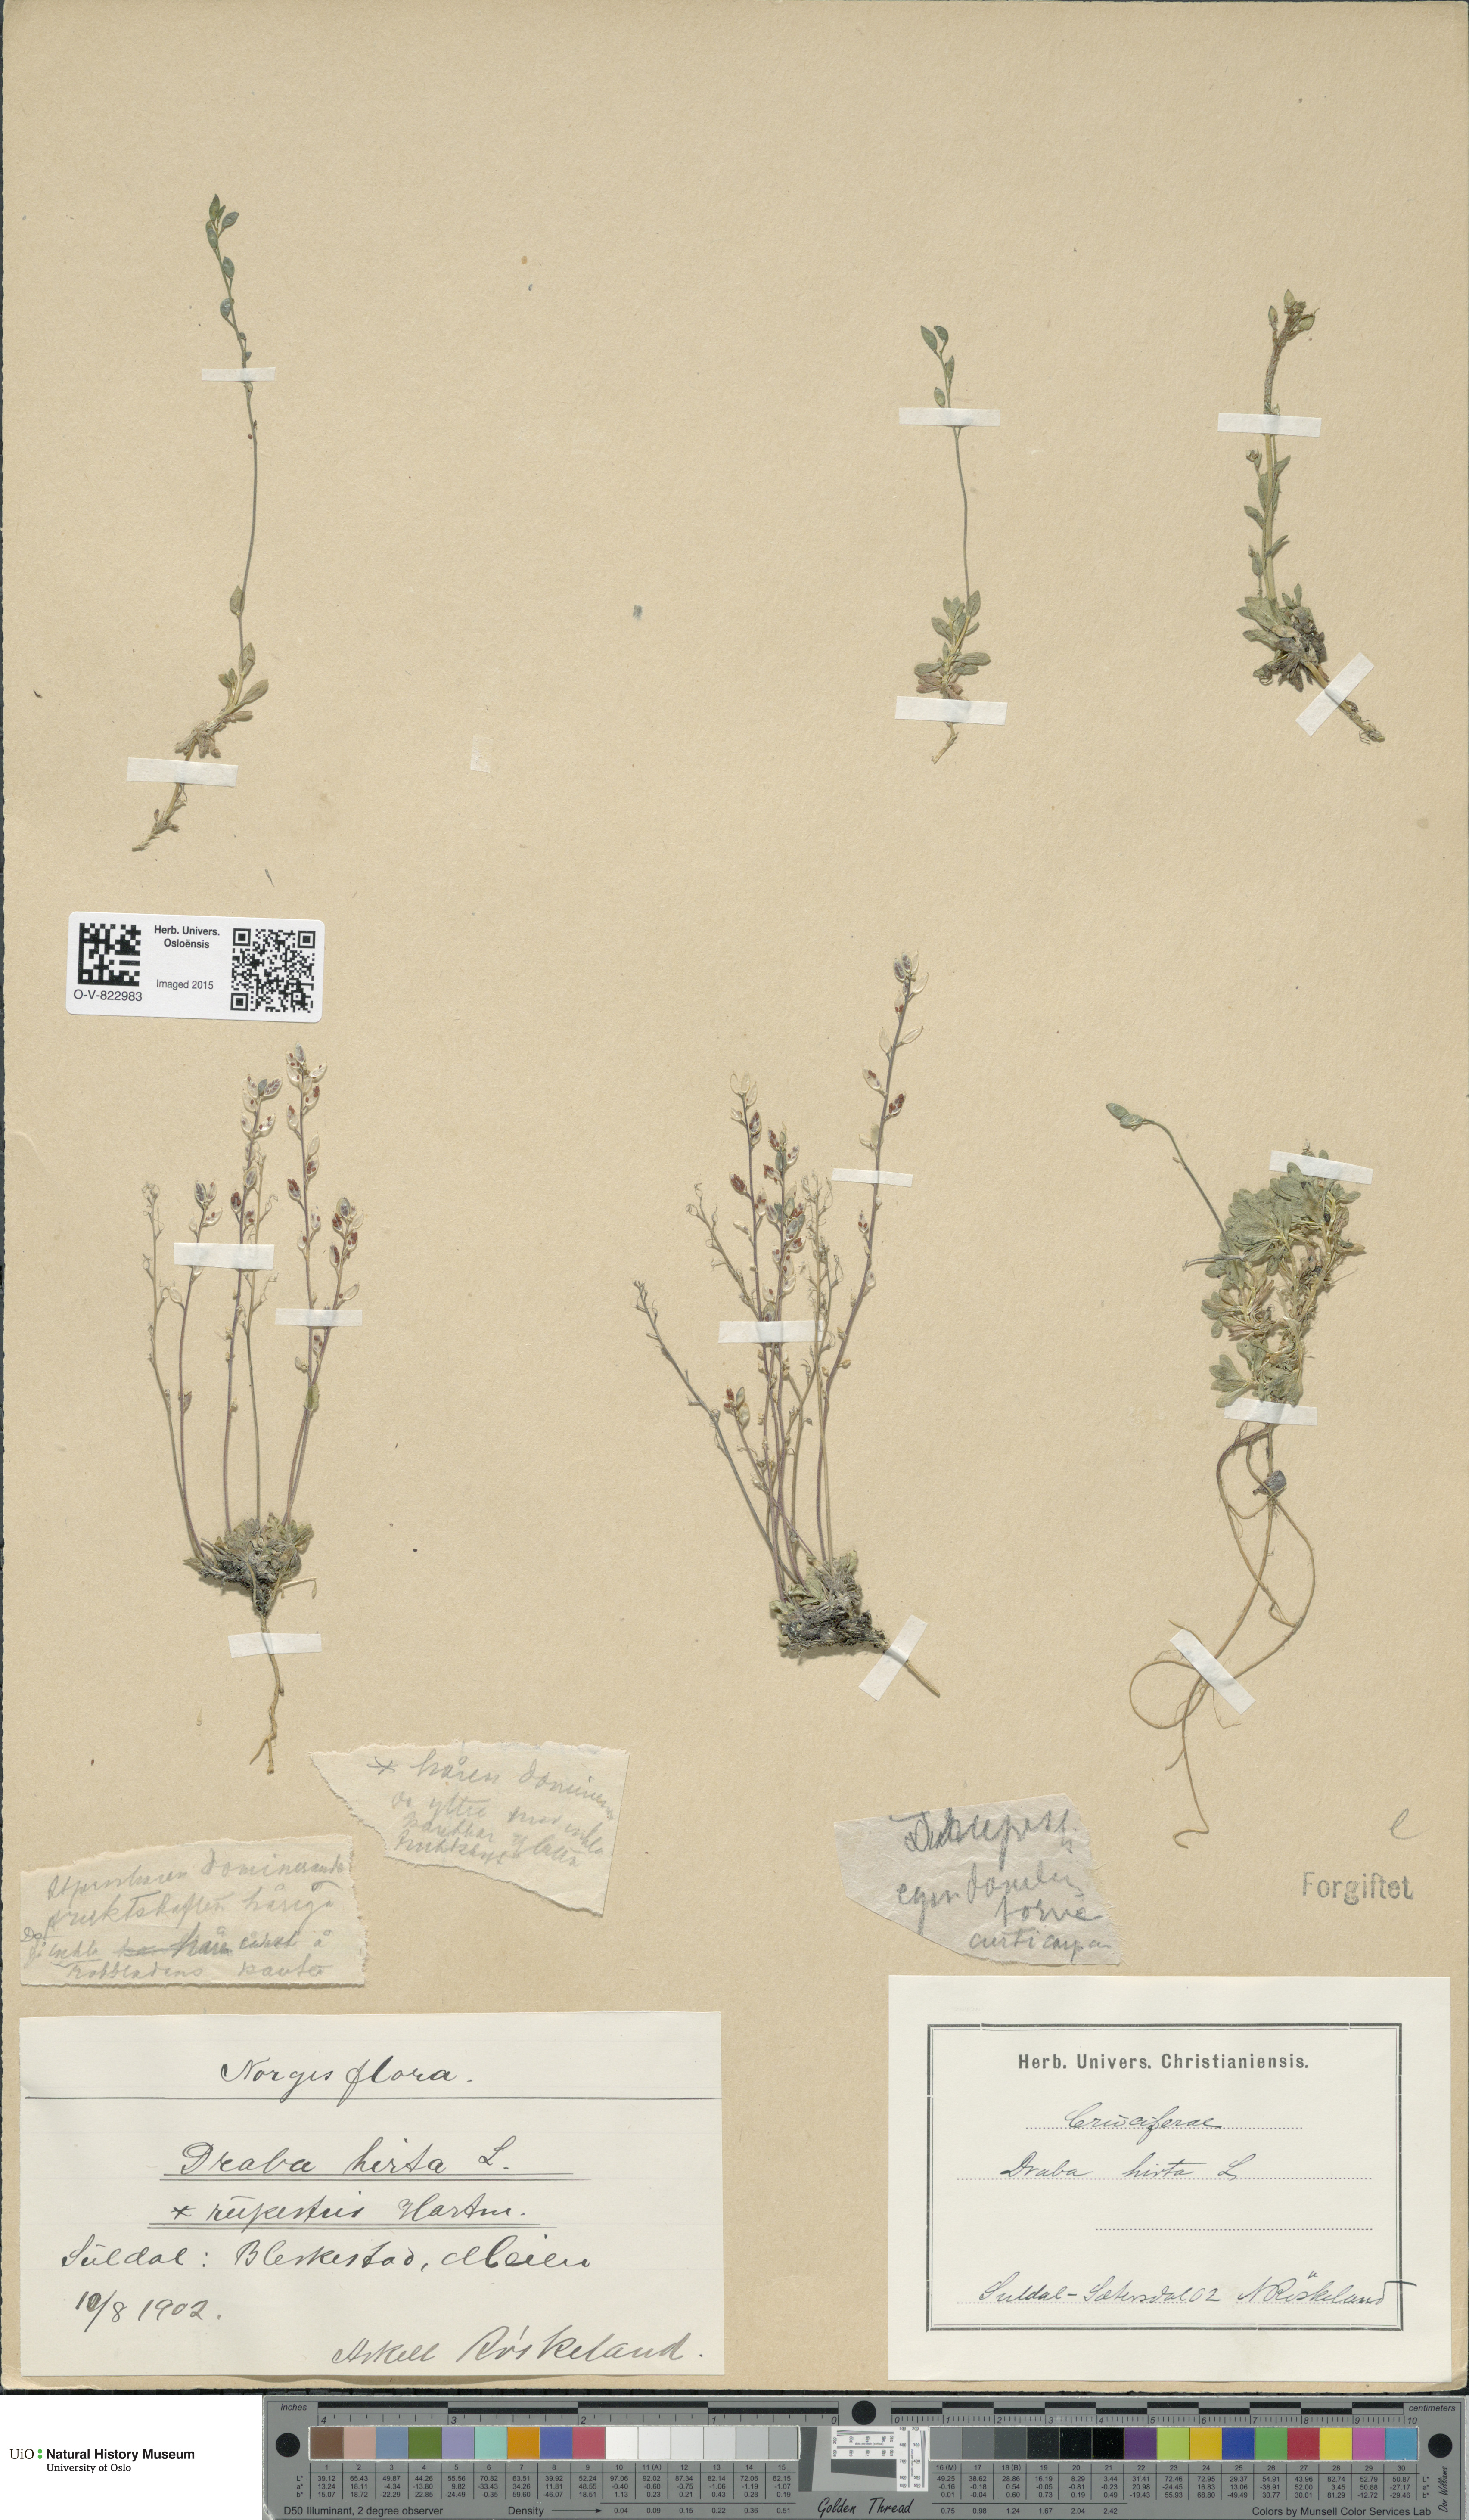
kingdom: Plantae
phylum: Tracheophyta
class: Magnoliopsida
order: Brassicales
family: Brassicaceae
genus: Draba
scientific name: Draba norvegica
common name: Rock whitlowgrass
